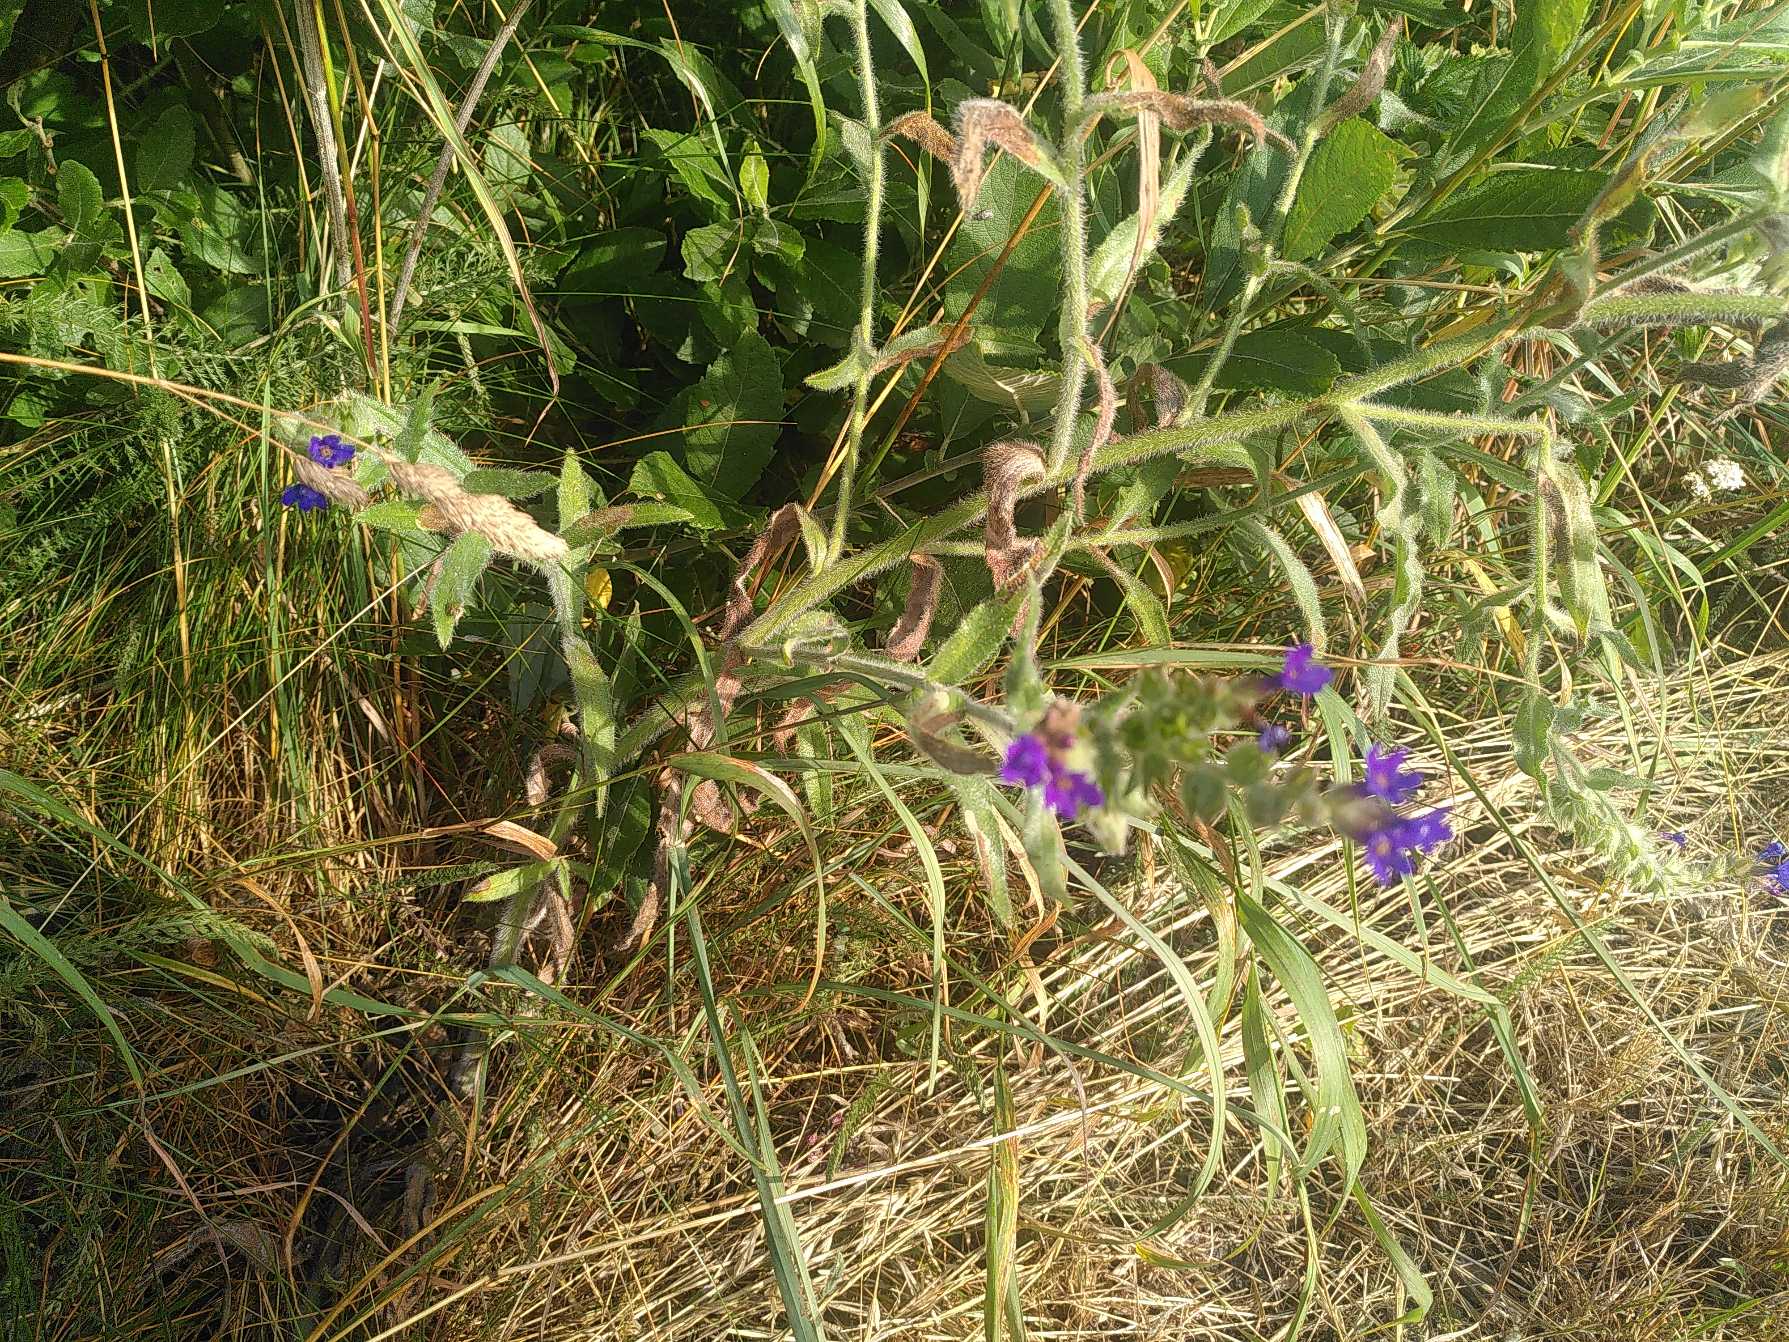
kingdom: Plantae
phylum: Tracheophyta
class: Magnoliopsida
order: Boraginales
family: Boraginaceae
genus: Anchusa
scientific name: Anchusa officinalis
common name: Læge-oksetunge
